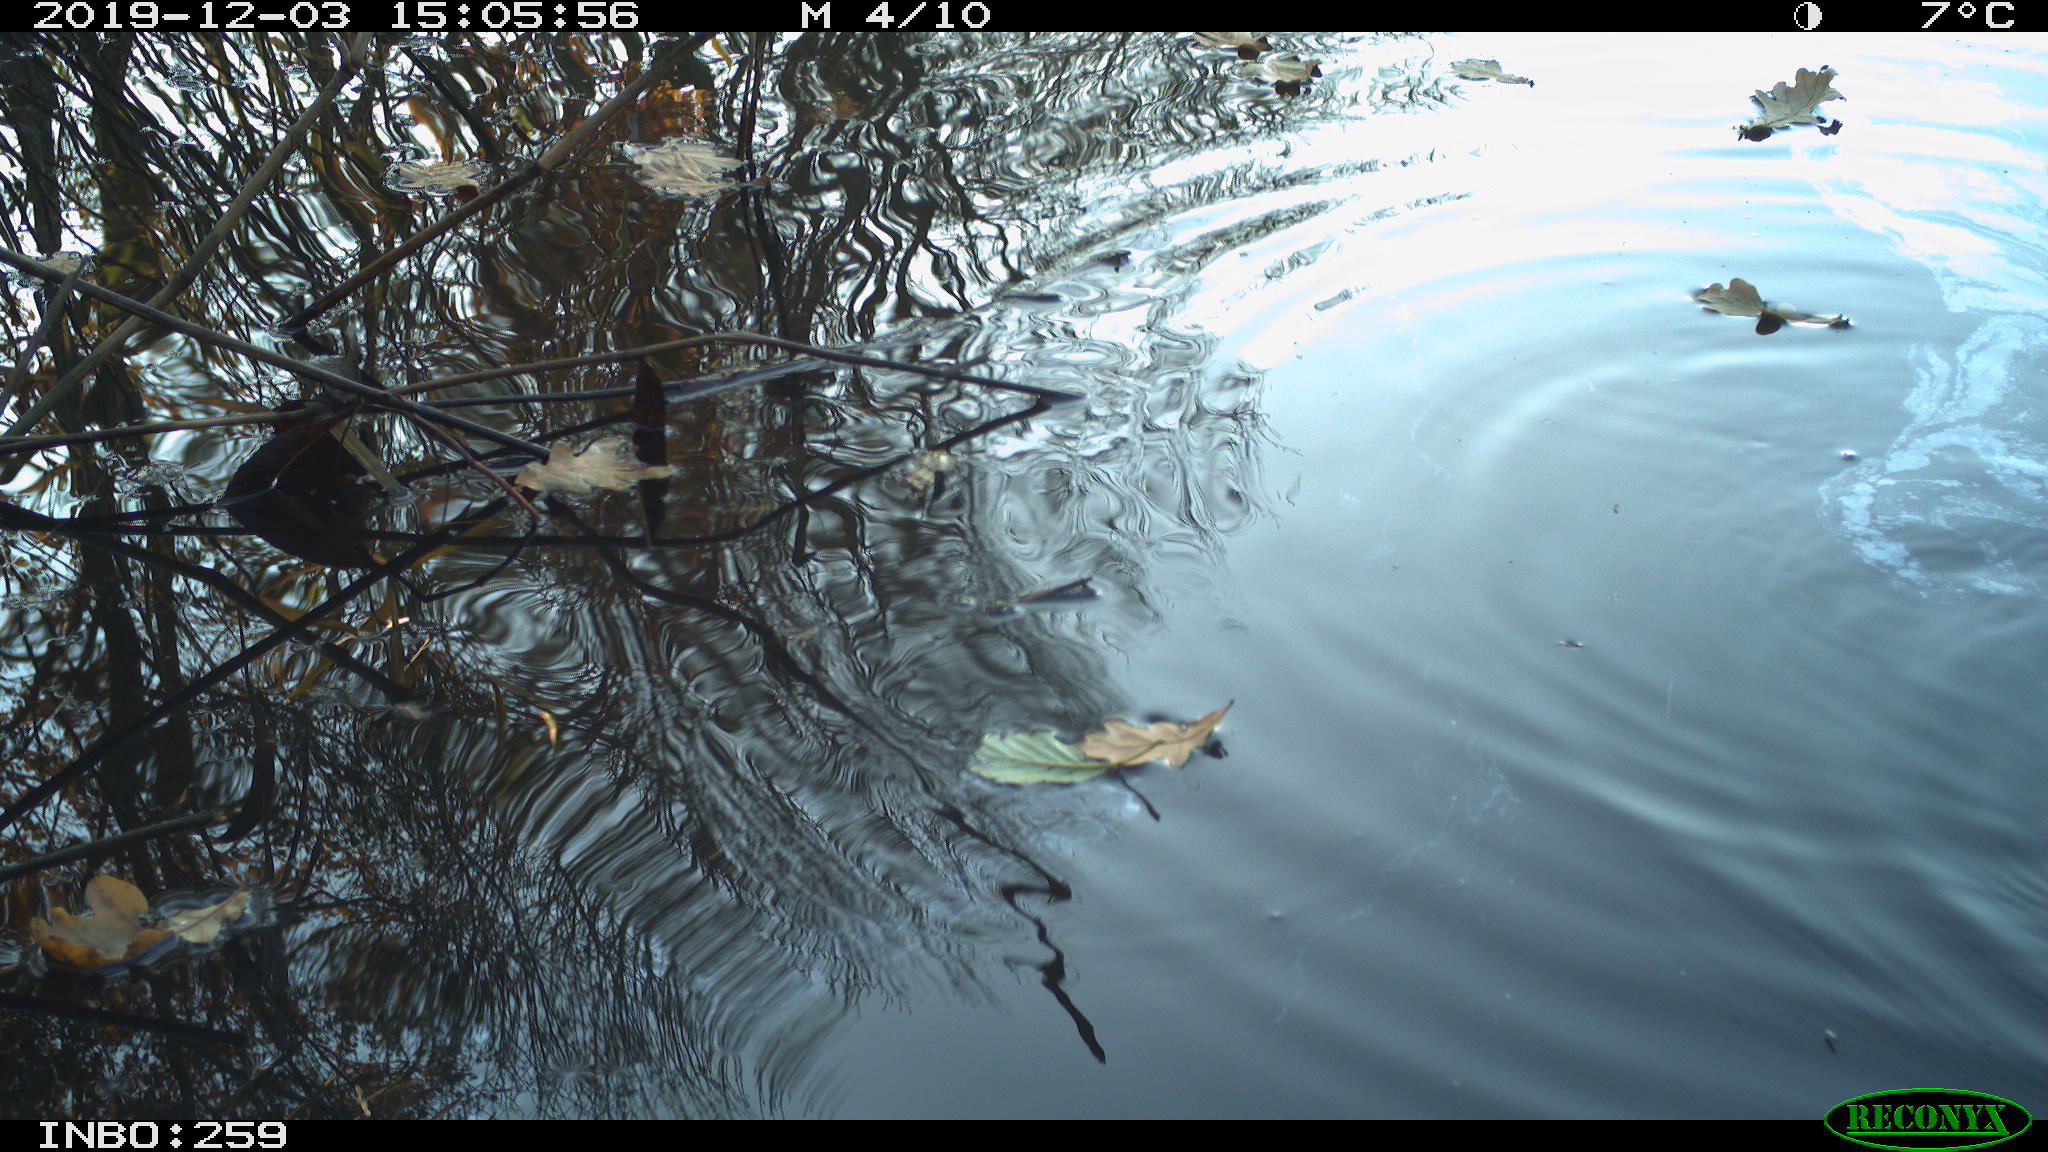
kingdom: Animalia
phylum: Chordata
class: Aves
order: Gruiformes
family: Rallidae
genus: Gallinula
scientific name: Gallinula chloropus
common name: Common moorhen
